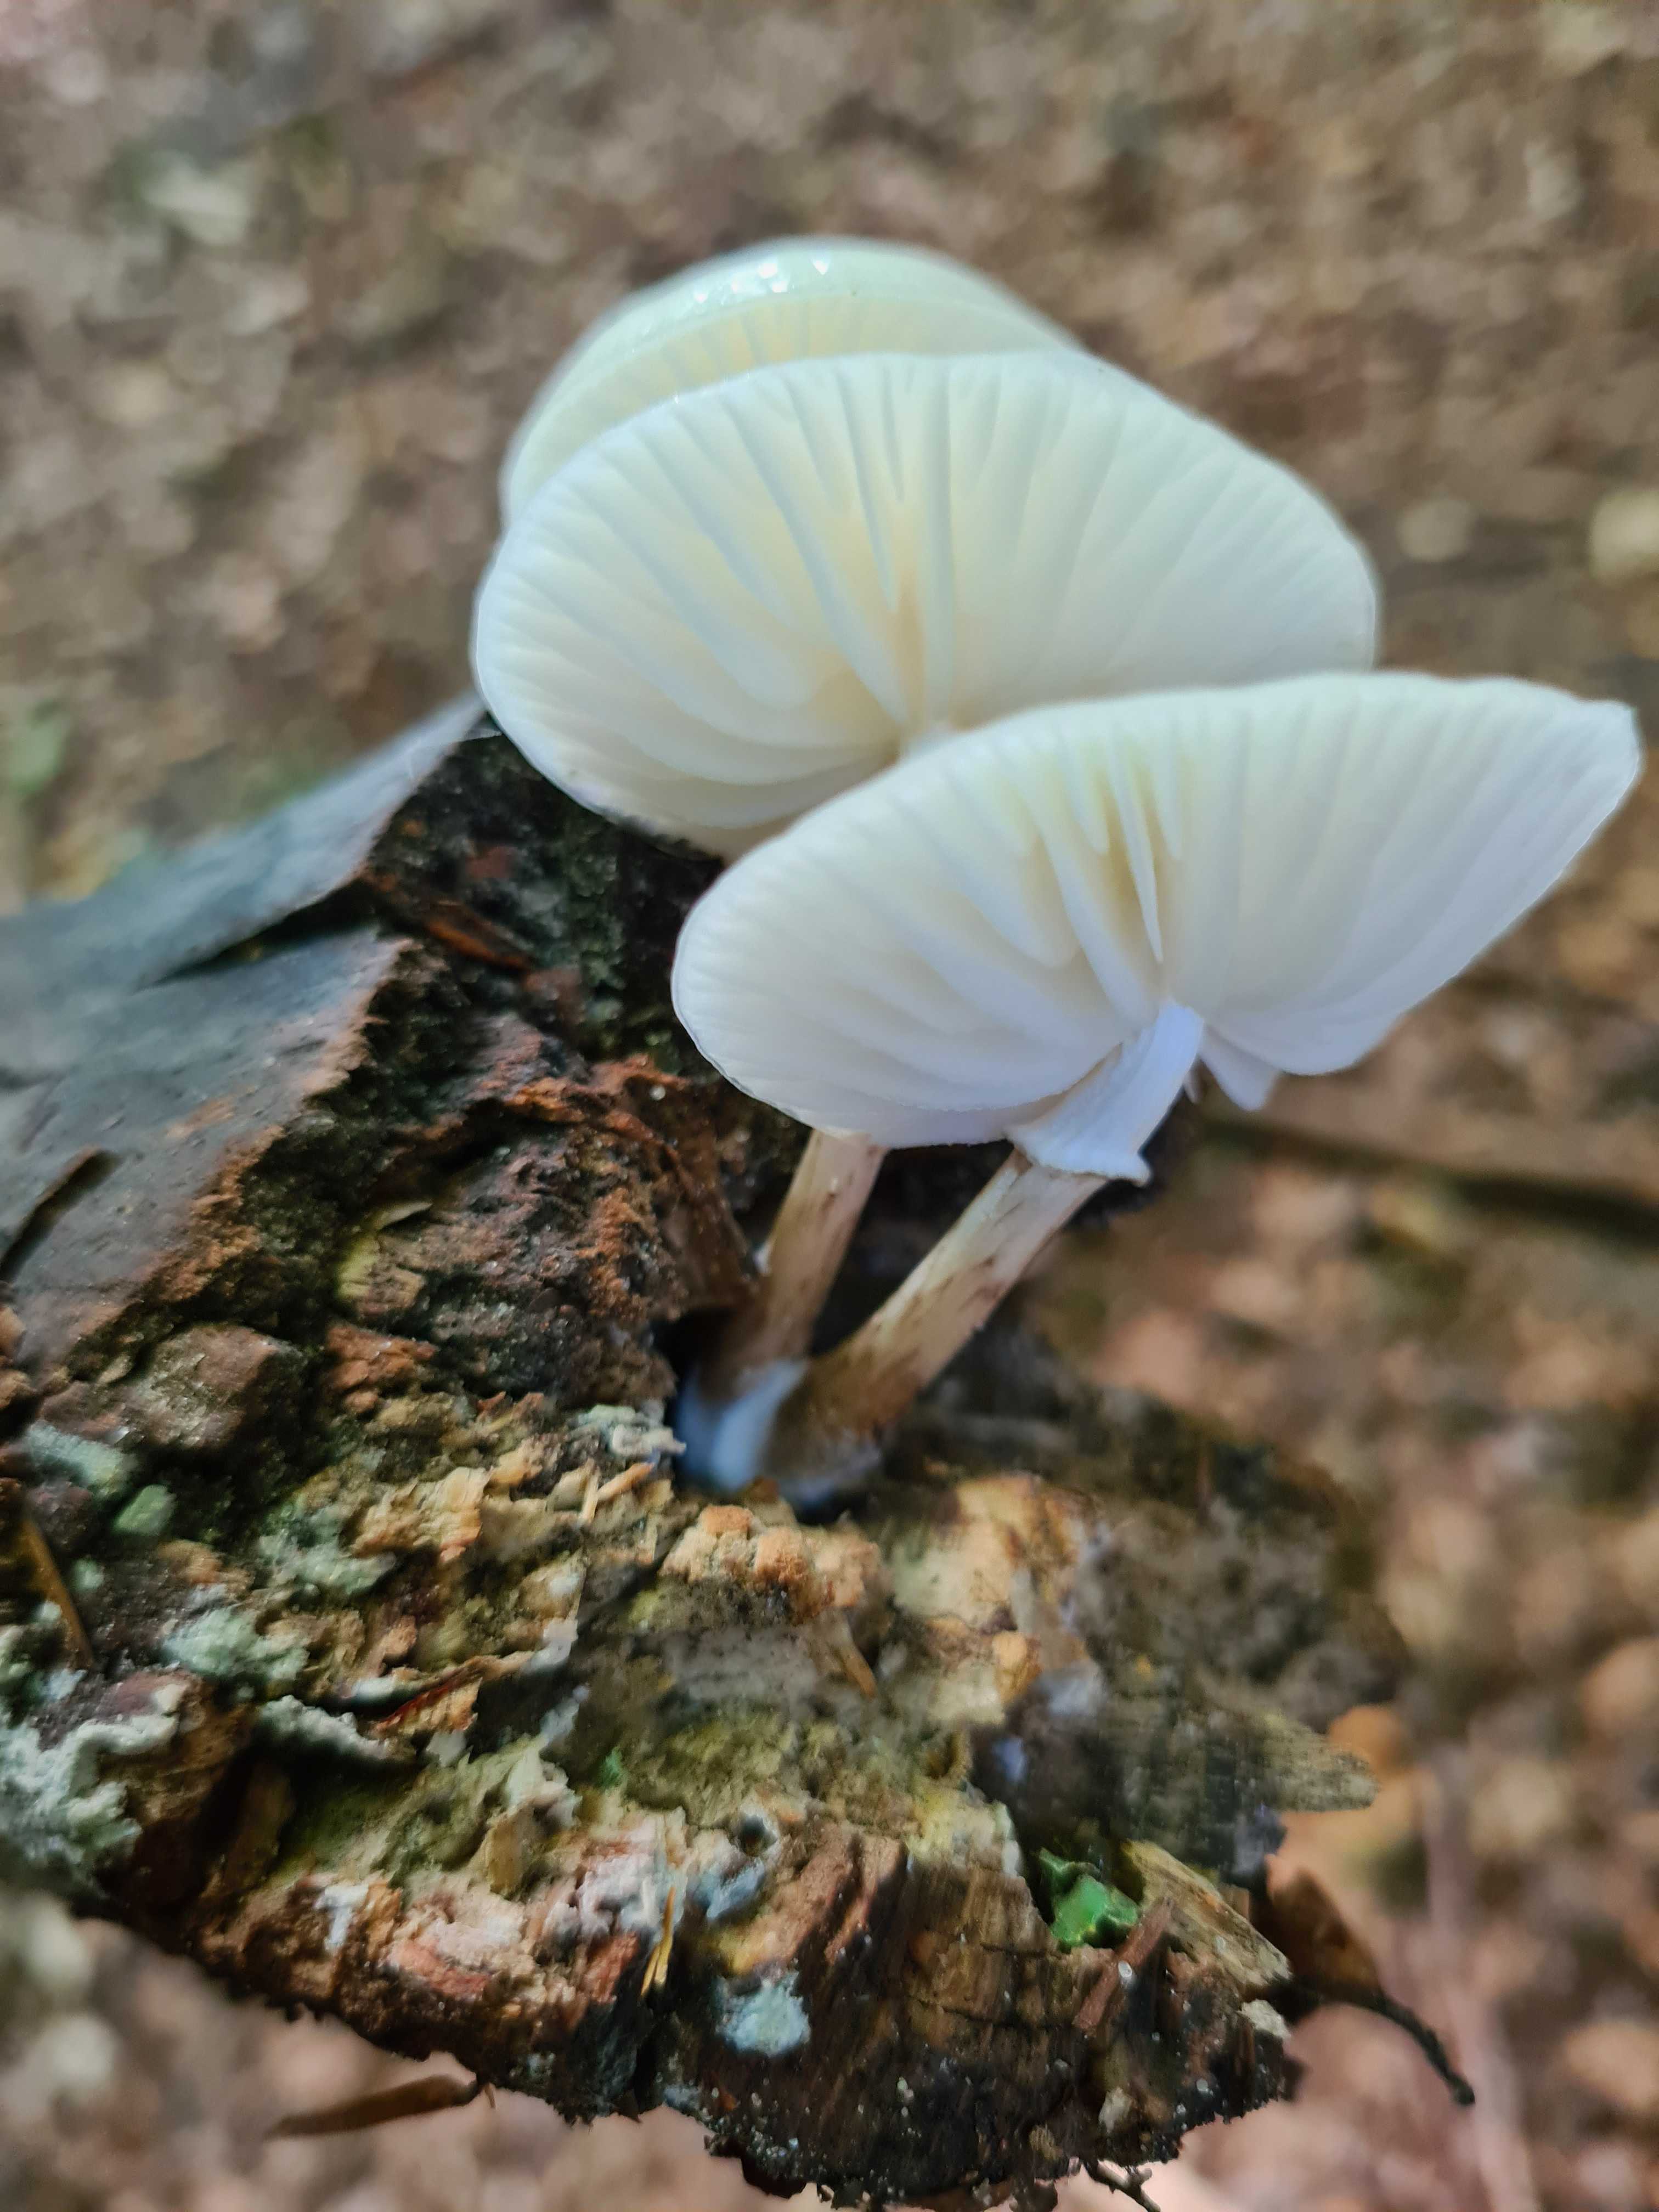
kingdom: Fungi
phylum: Basidiomycota
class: Agaricomycetes
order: Agaricales
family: Physalacriaceae
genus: Mucidula
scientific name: Mucidula mucida
